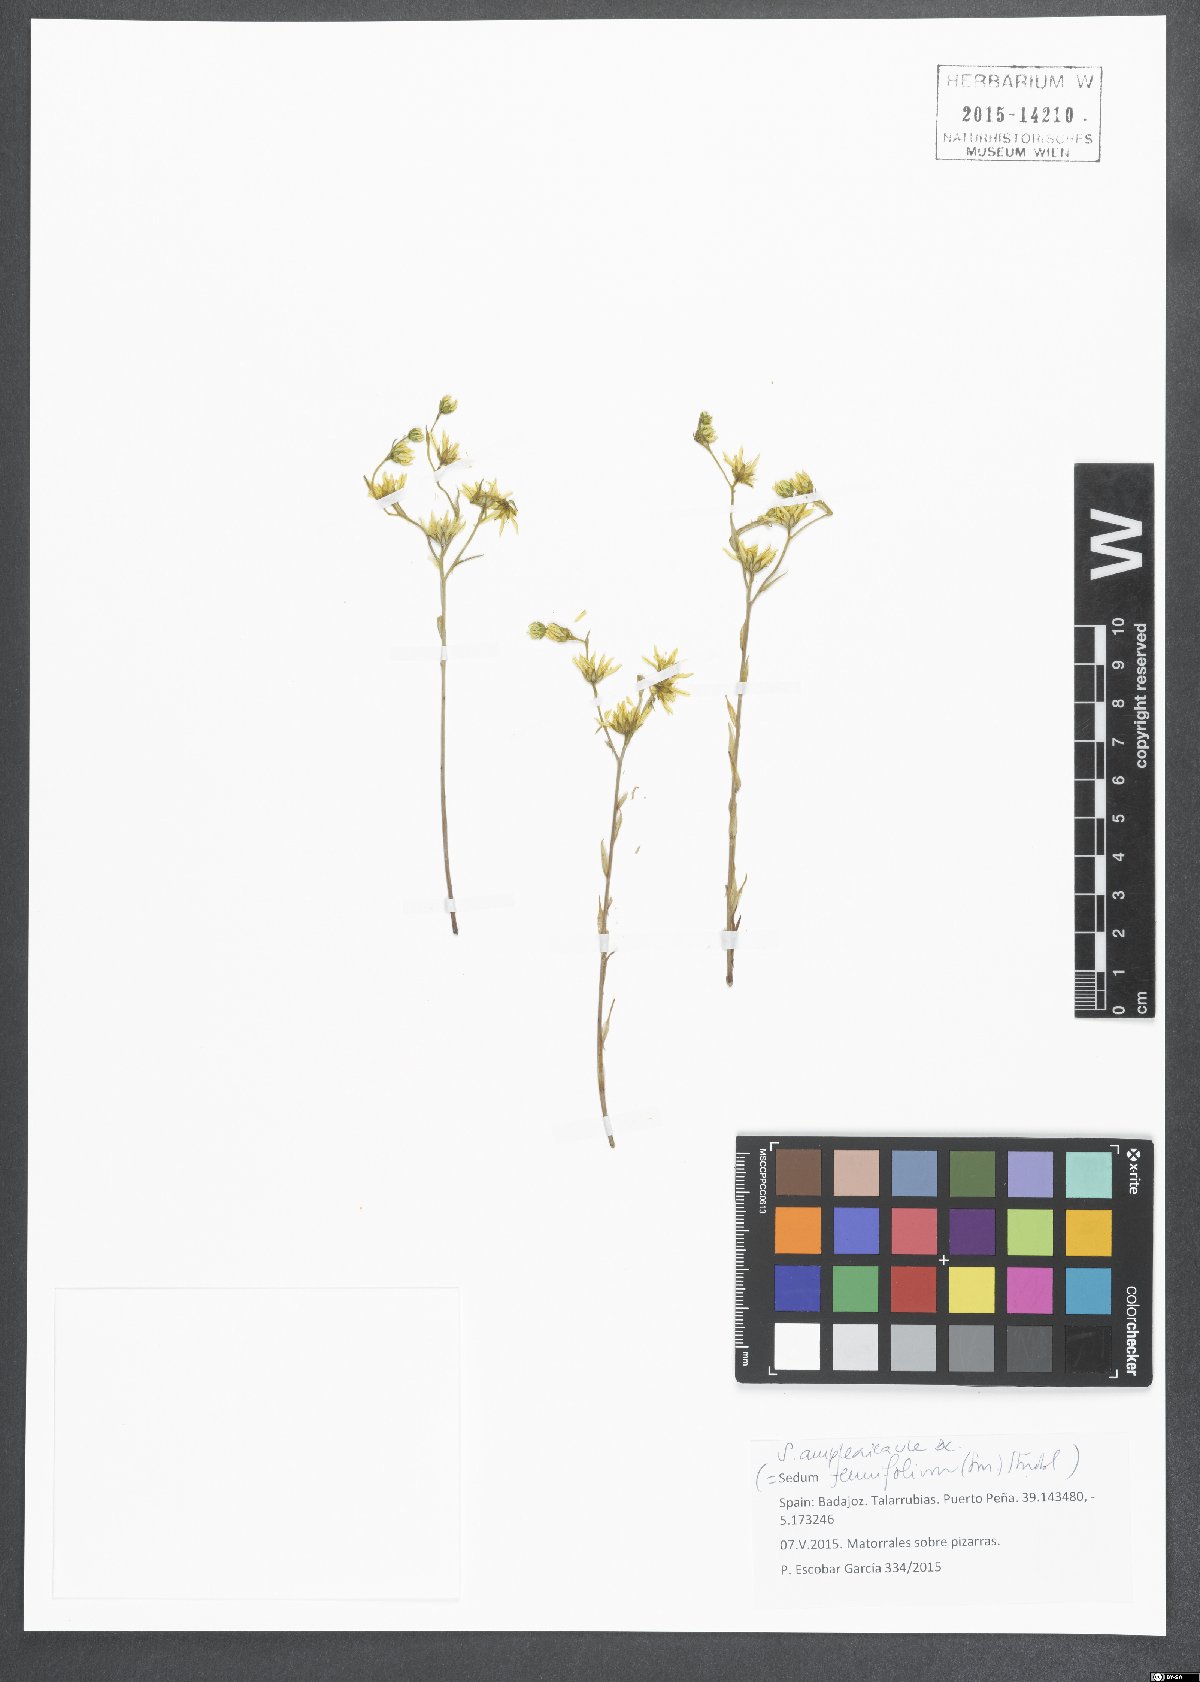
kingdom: Plantae
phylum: Tracheophyta
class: Magnoliopsida
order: Saxifragales
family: Crassulaceae
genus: Petrosedum
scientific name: Petrosedum amplexicaule
